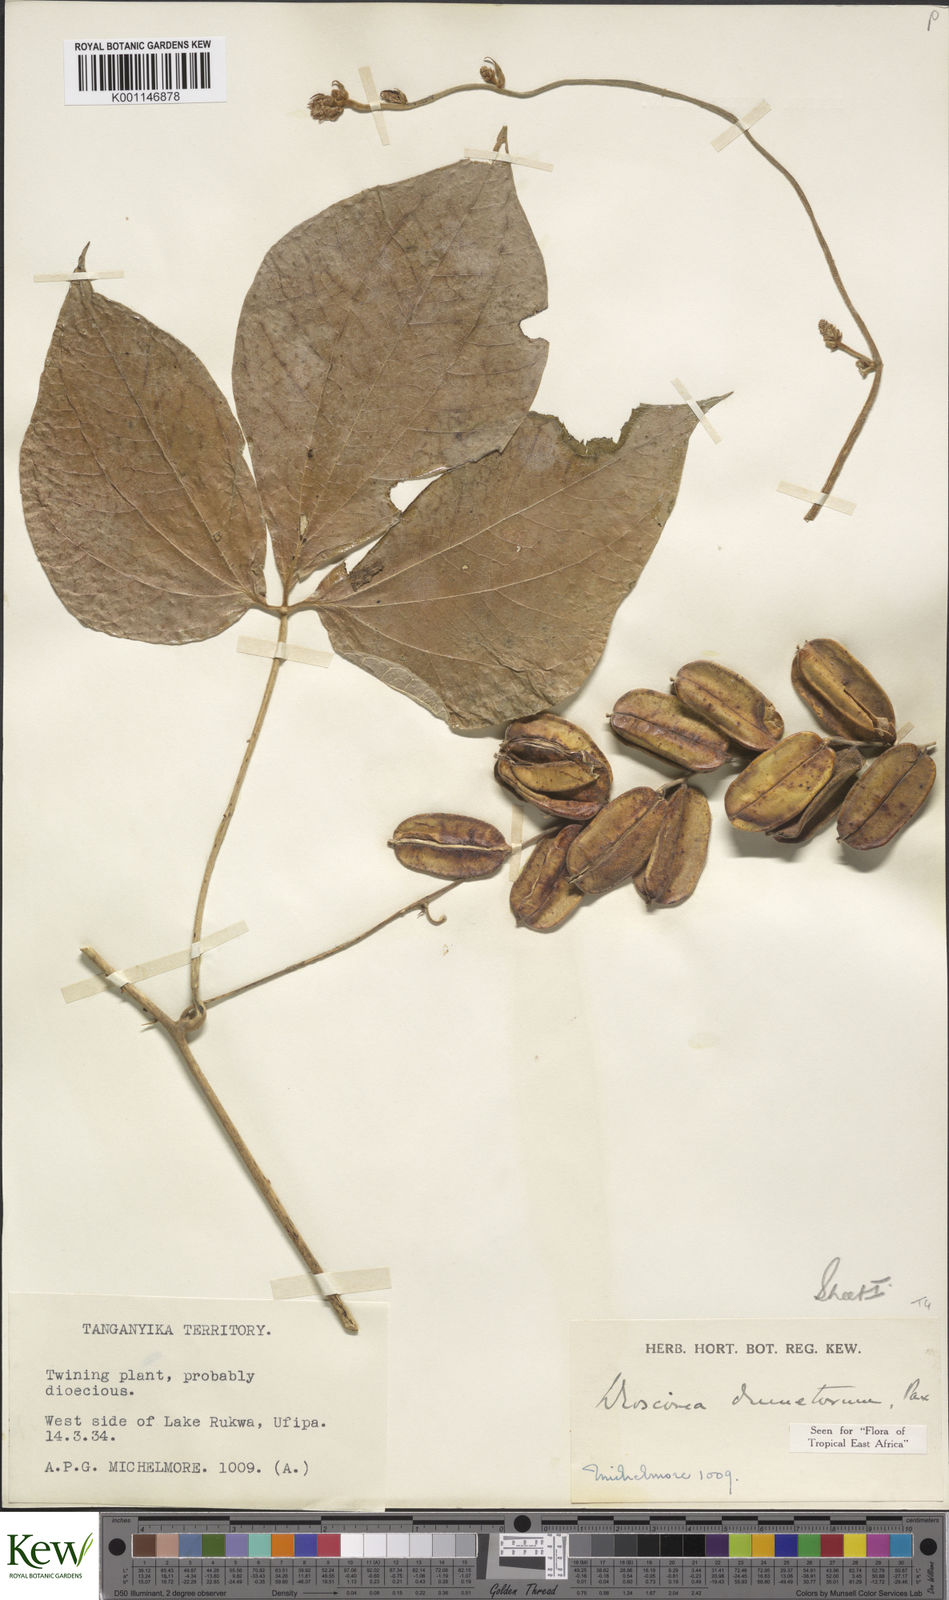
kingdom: Plantae
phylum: Tracheophyta
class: Liliopsida
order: Dioscoreales
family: Dioscoreaceae
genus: Dioscorea
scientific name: Dioscorea dumetorum
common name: African bitter yam
